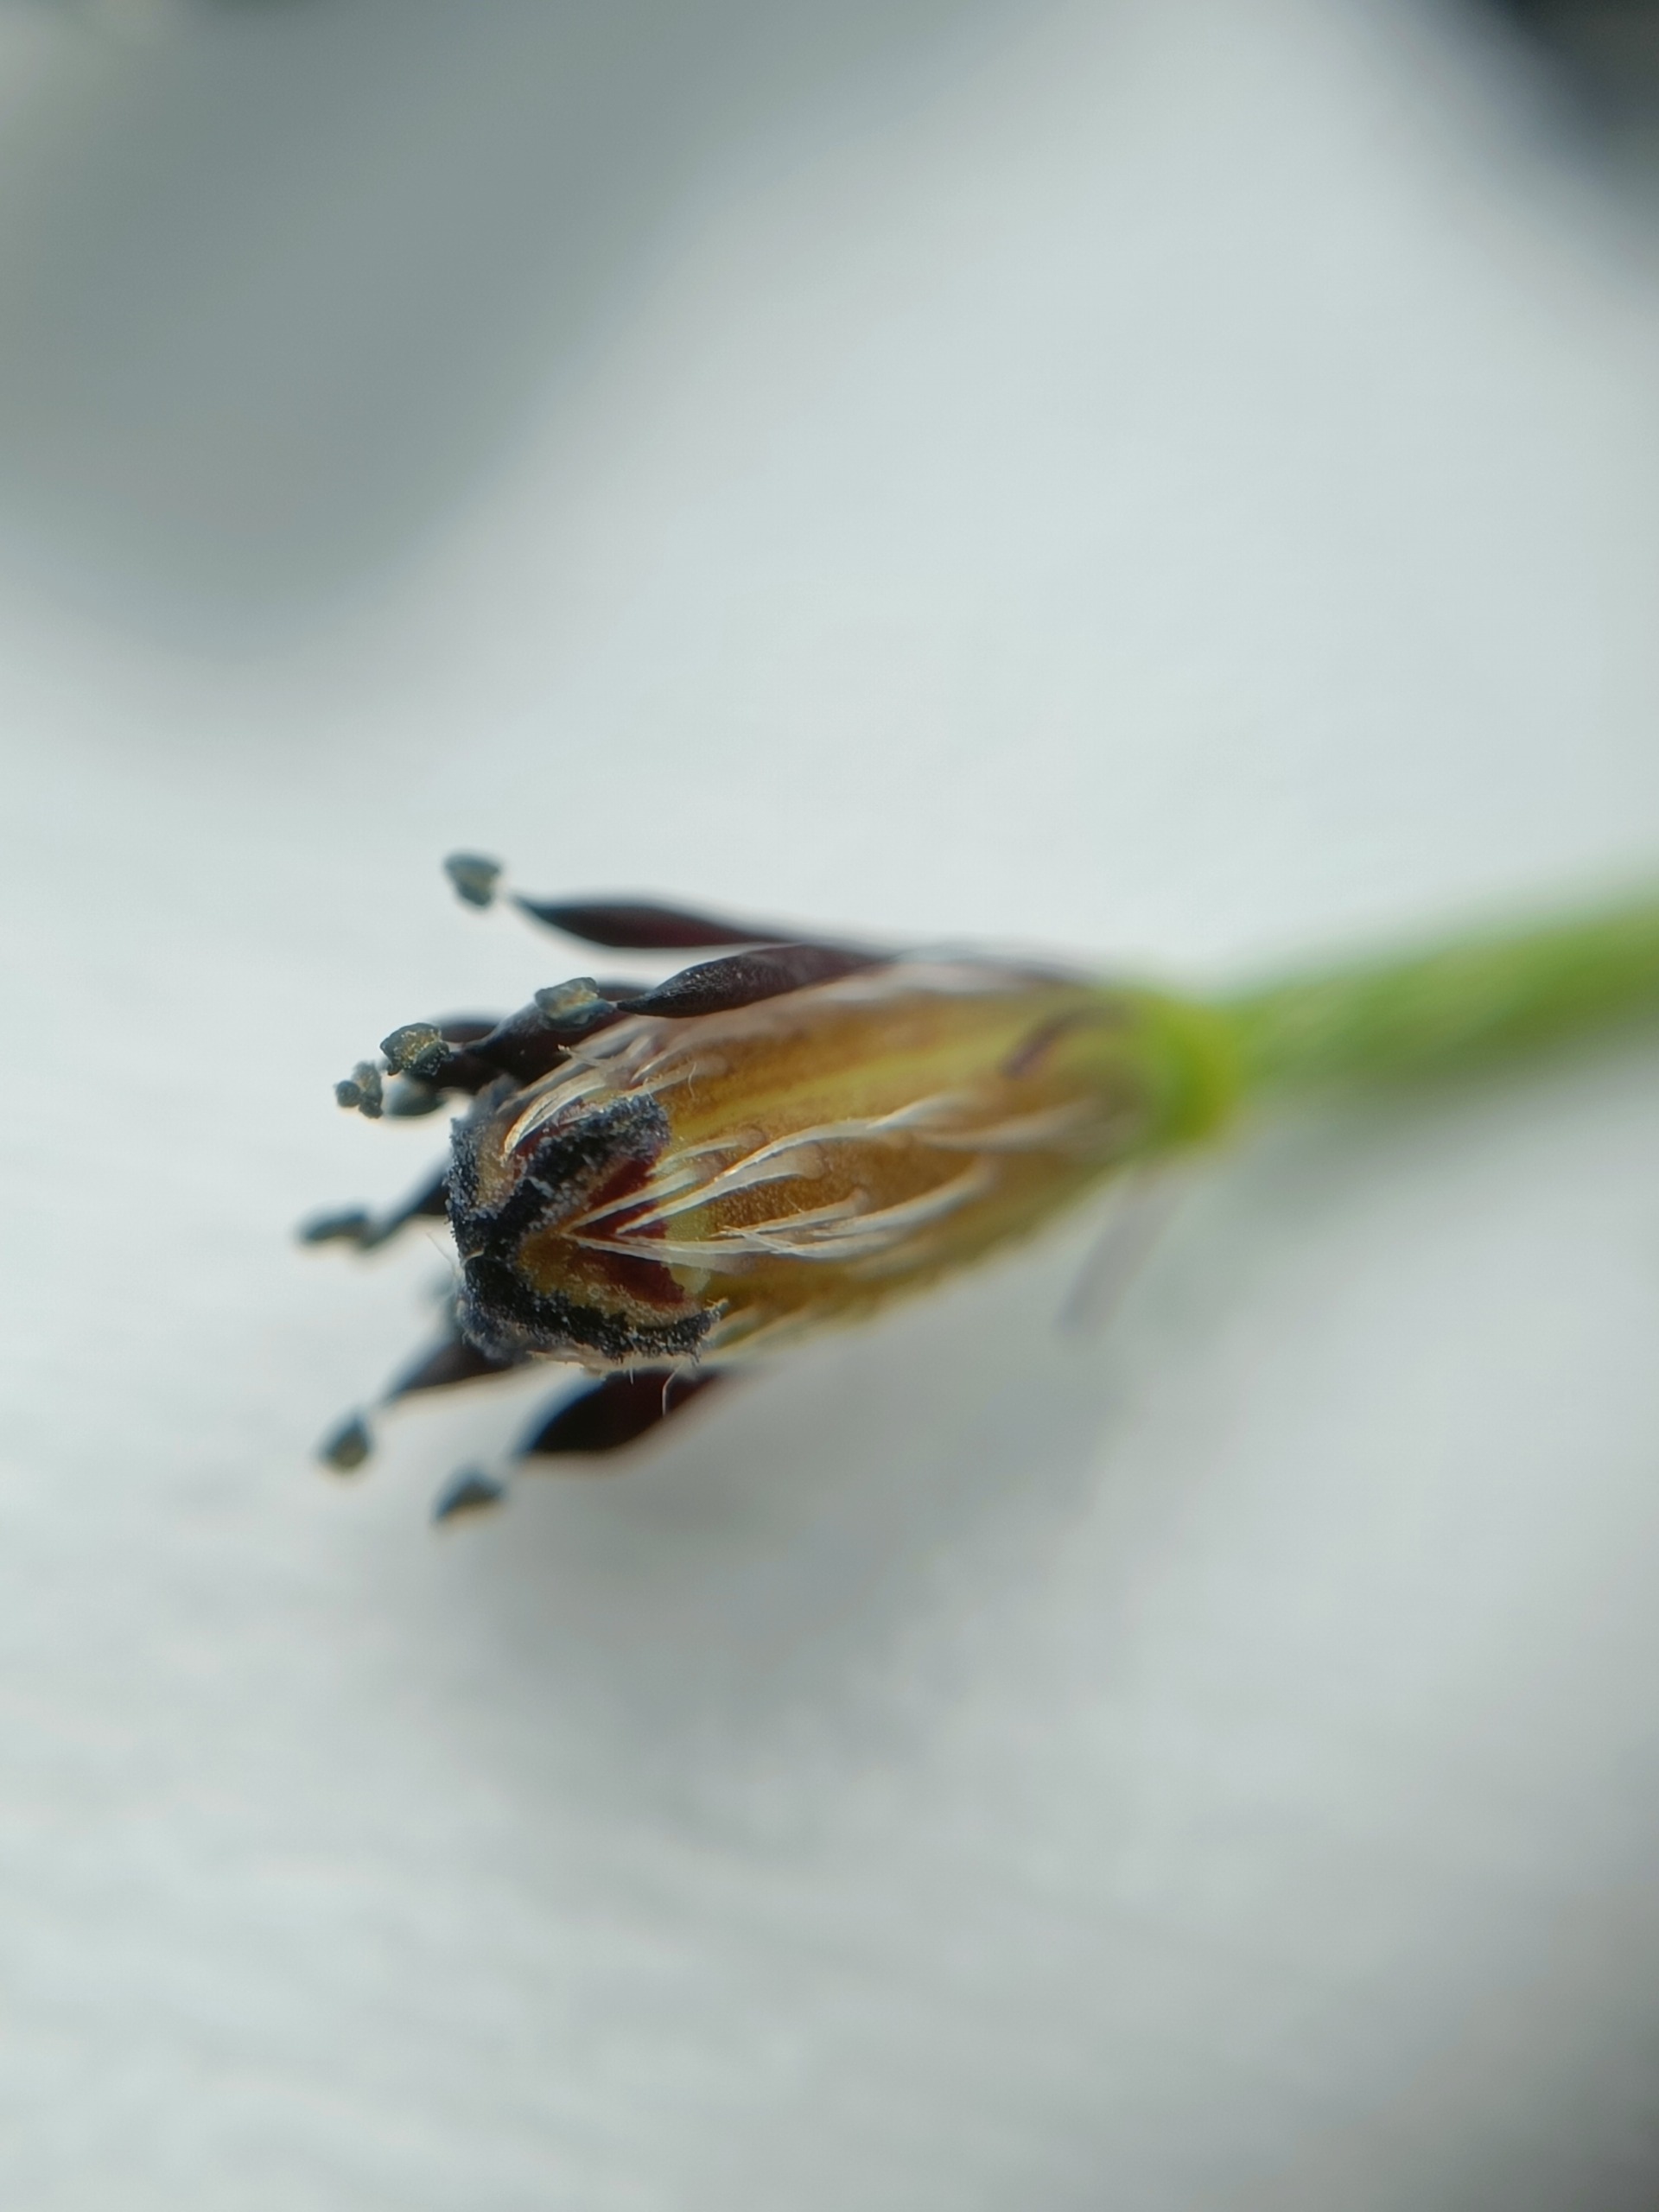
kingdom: Plantae
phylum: Tracheophyta
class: Magnoliopsida
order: Ranunculales
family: Papaveraceae
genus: Roemeria
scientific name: Roemeria argemone
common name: Kølle-valmue
